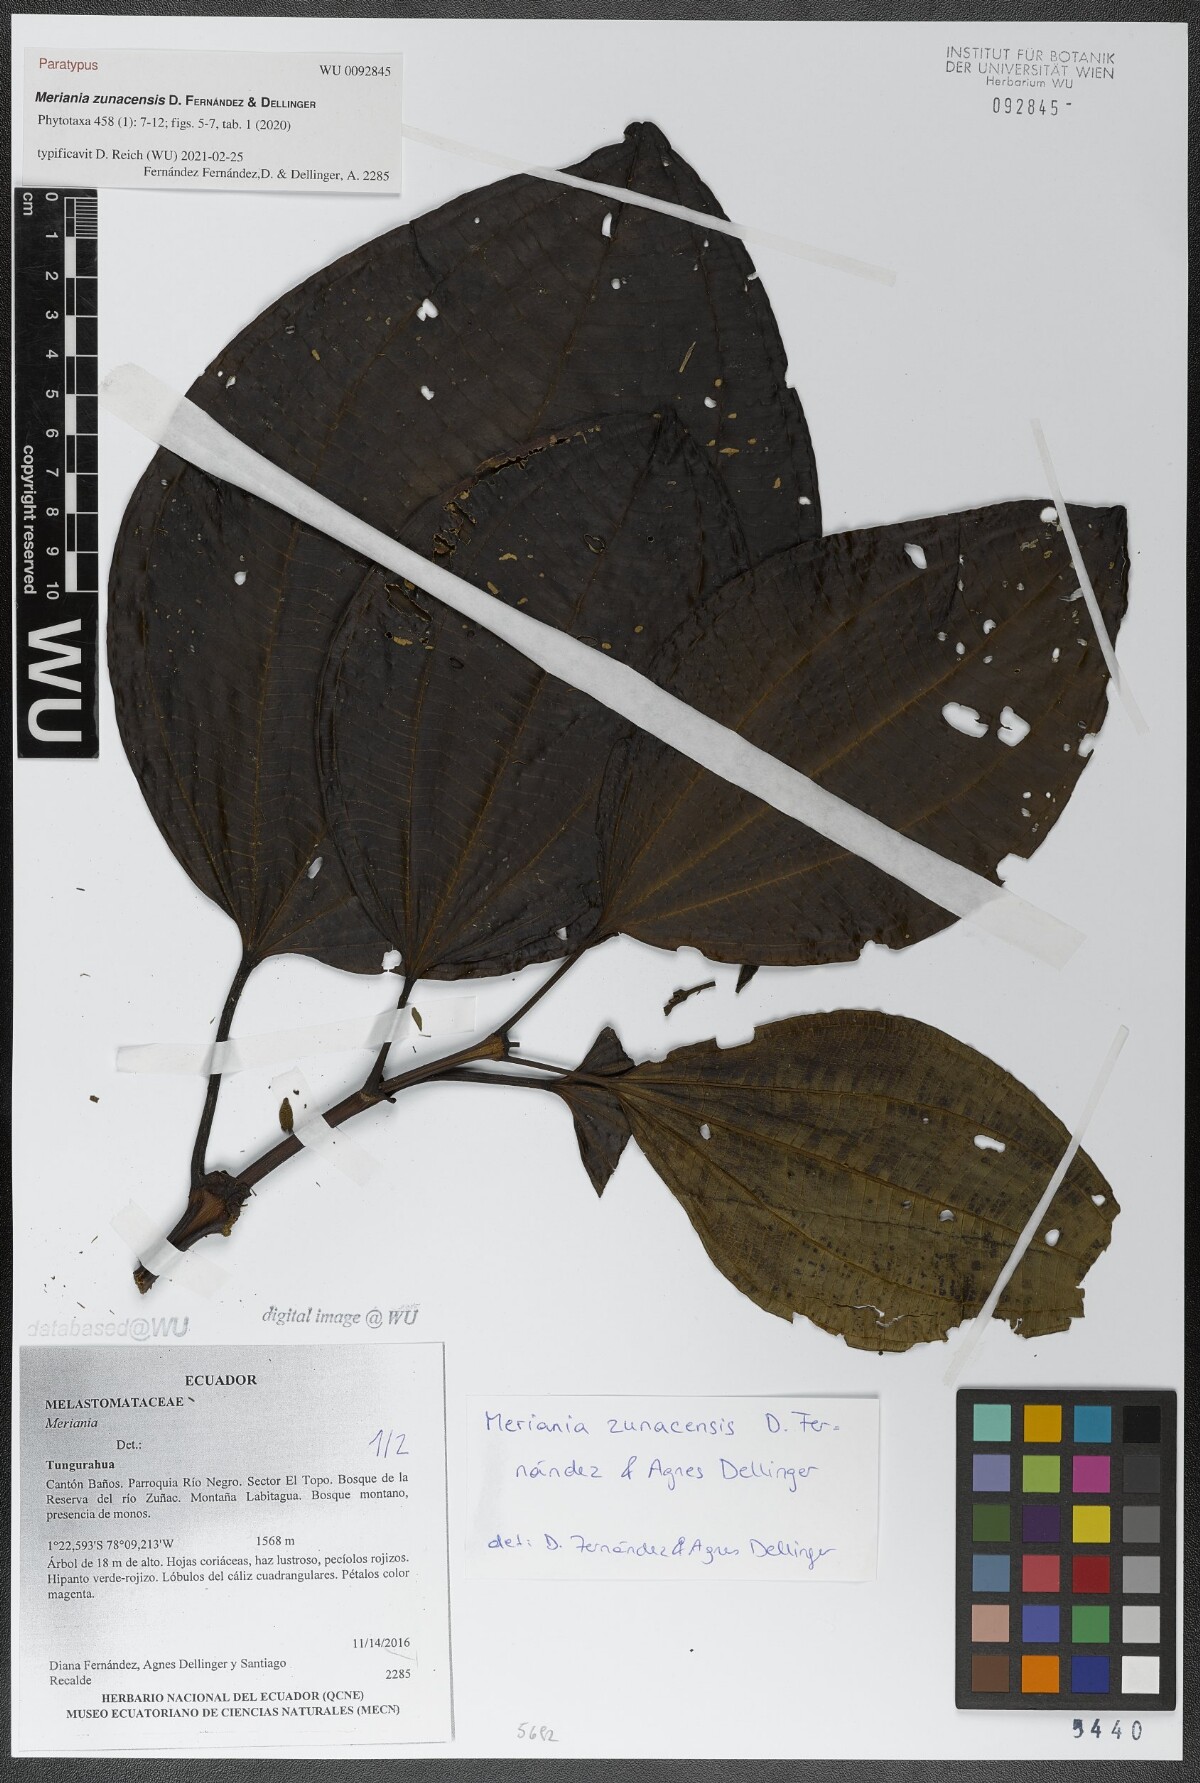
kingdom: Plantae
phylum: Tracheophyta
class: Magnoliopsida
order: Myrtales
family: Melastomataceae
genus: Meriania
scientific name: Meriania zunacensis
